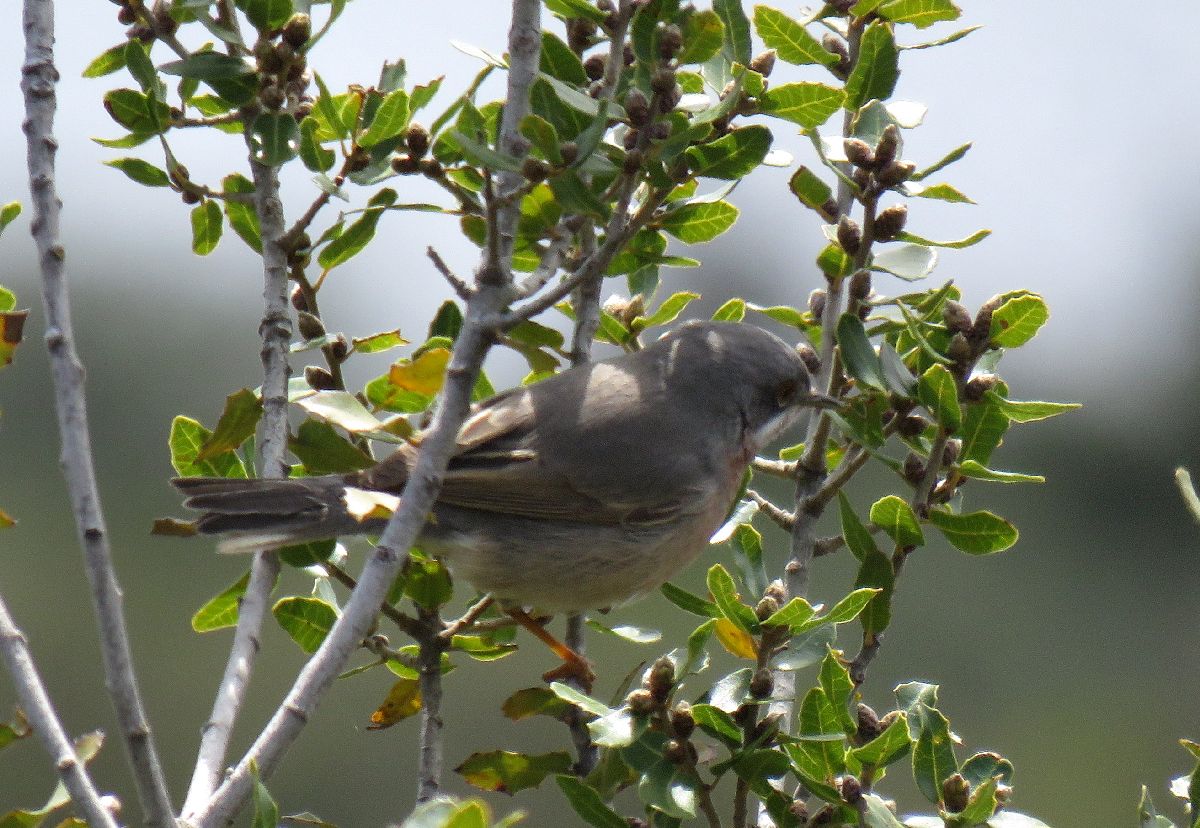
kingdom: Animalia
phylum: Chordata
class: Aves
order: Passeriformes
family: Sylviidae
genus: Sylvia
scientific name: Sylvia cantillans
